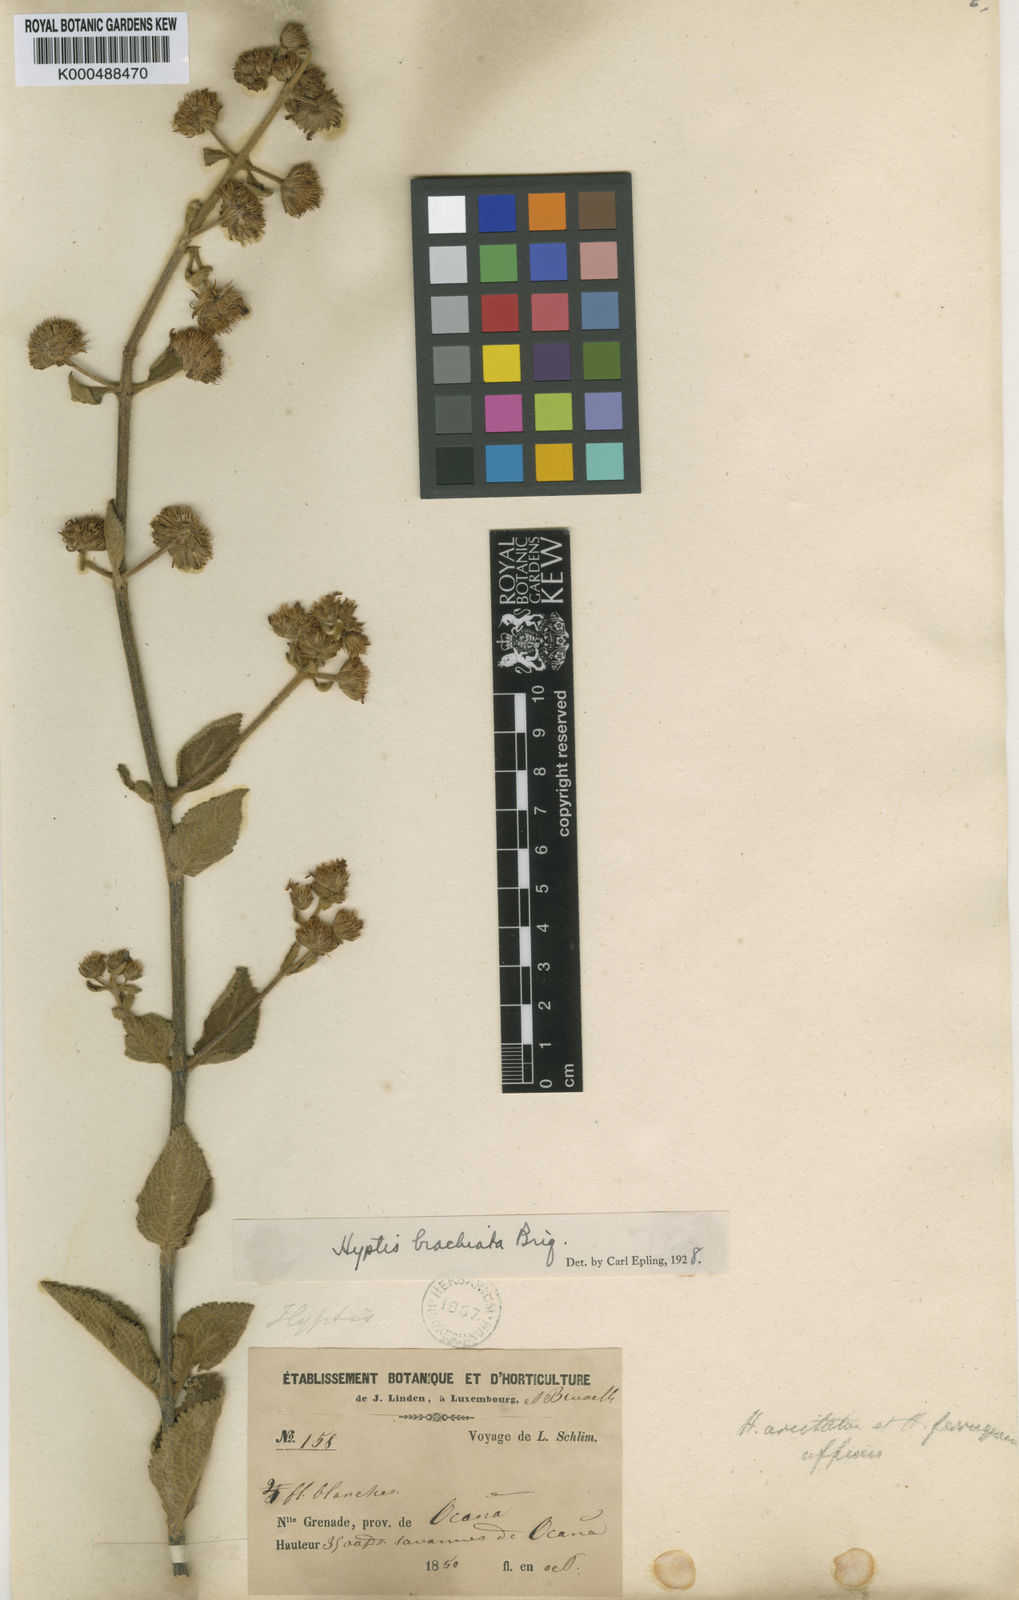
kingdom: Plantae
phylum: Tracheophyta
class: Magnoliopsida
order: Lamiales
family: Lamiaceae
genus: Hyptis
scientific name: Hyptis brachiata
